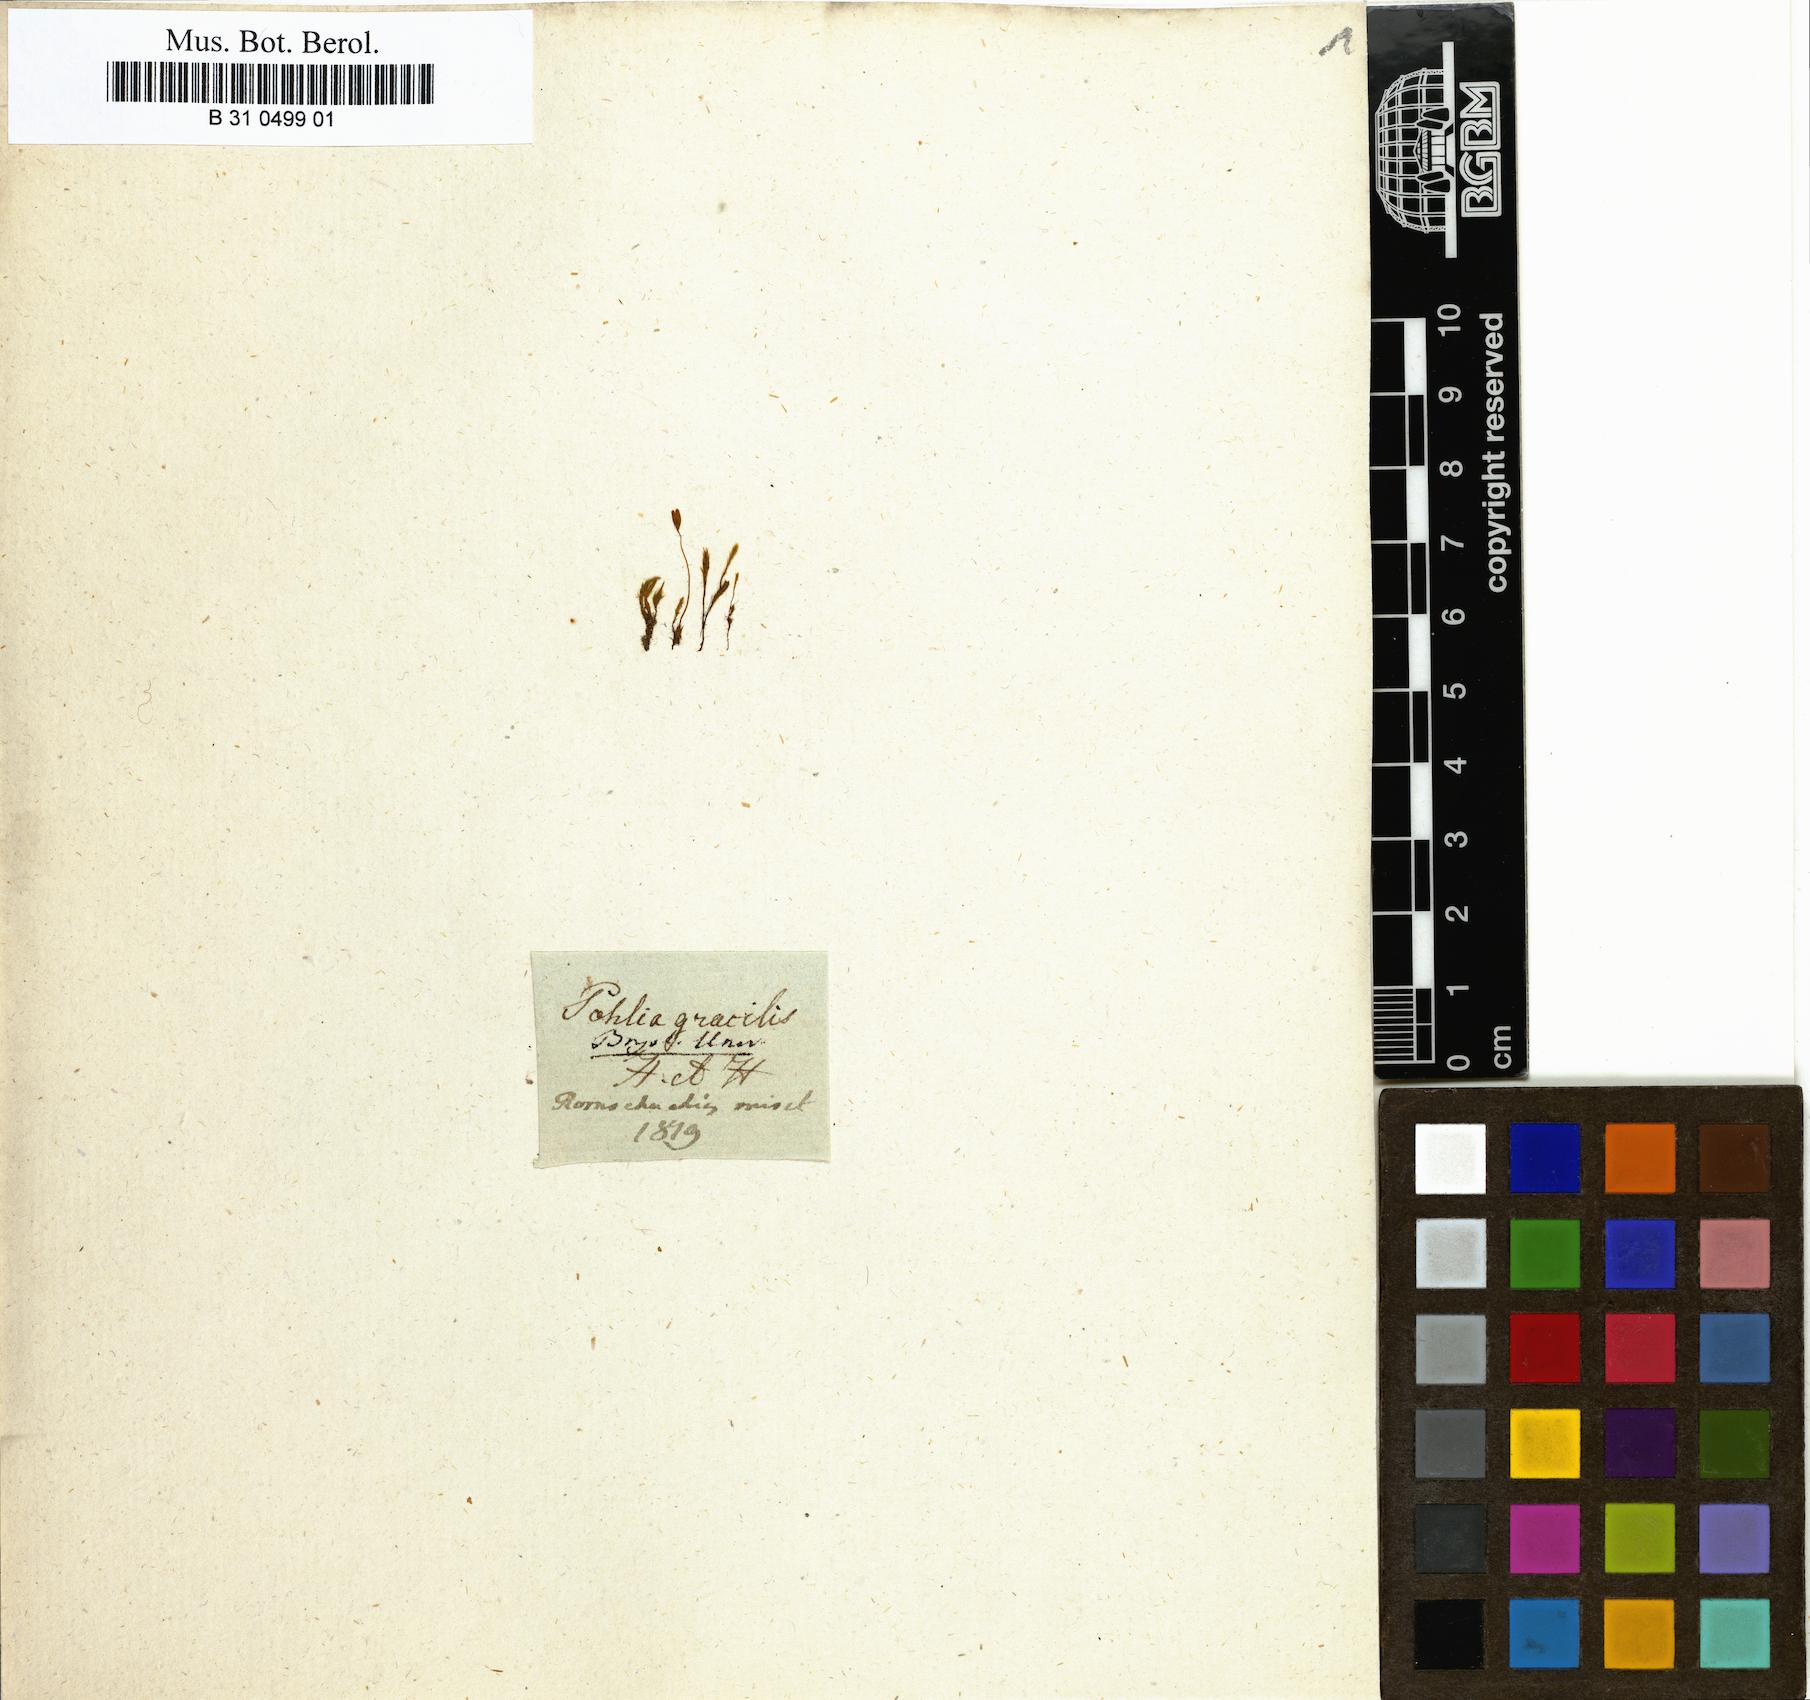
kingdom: Plantae
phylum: Bryophyta
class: Bryopsida
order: Bryales
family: Mniaceae
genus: Pohlia
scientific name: Pohlia elongata
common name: Long-fruited thread-moss
